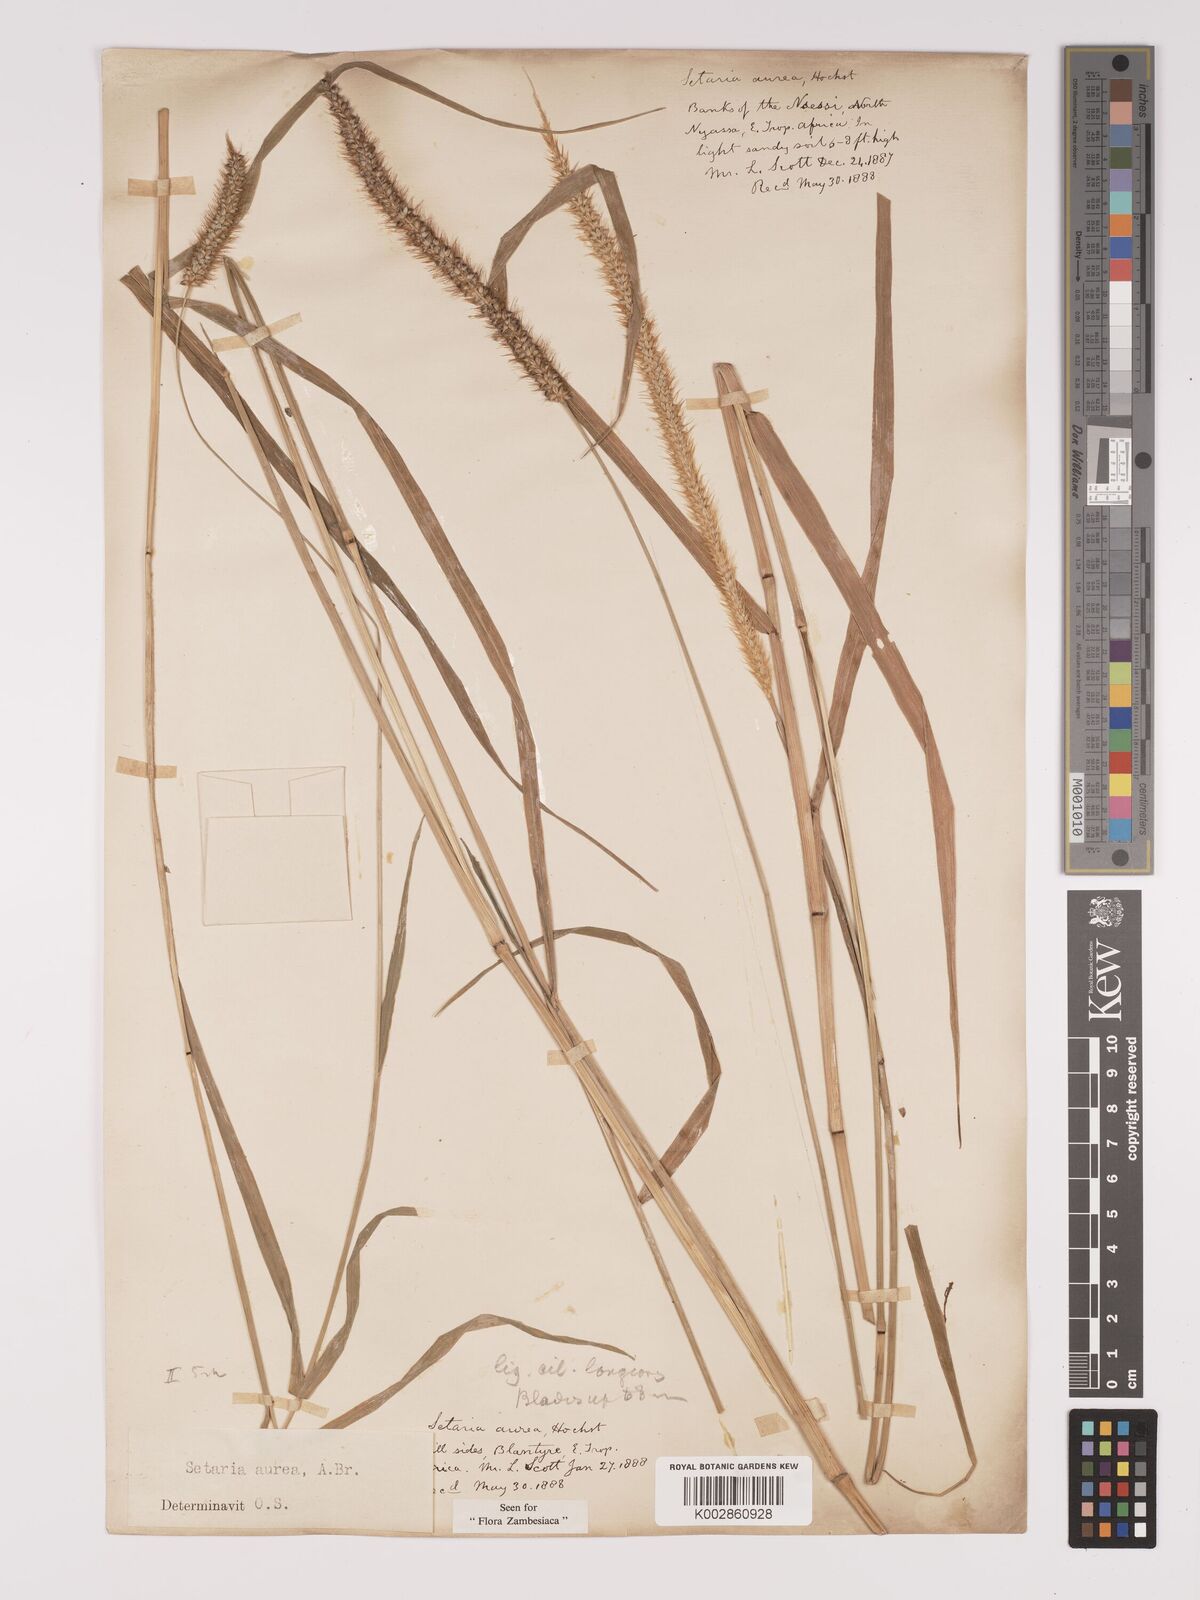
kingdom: Plantae
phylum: Tracheophyta
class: Liliopsida
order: Poales
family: Poaceae
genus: Setaria
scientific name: Setaria sphacelata
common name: African bristlegrass
